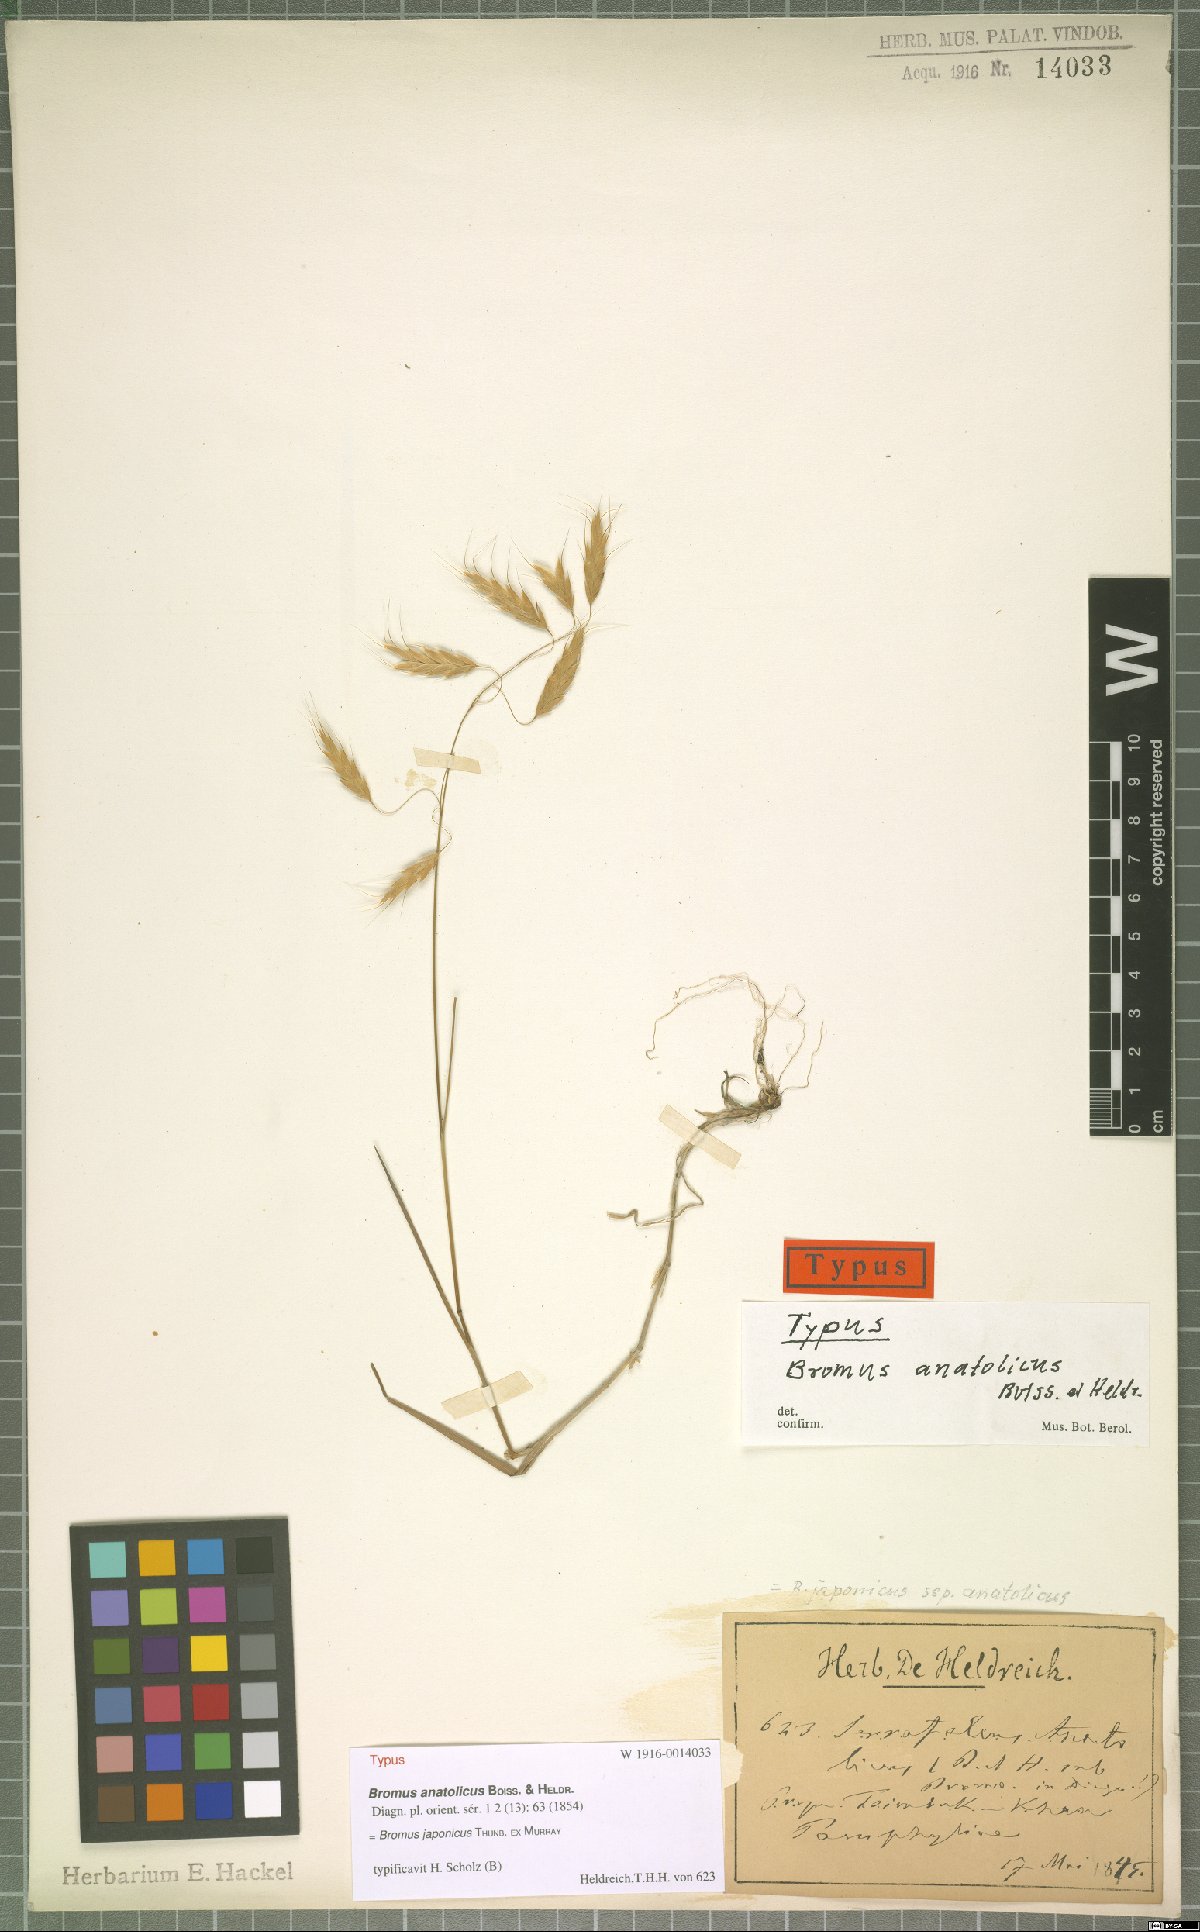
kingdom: Plantae
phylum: Tracheophyta
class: Liliopsida
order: Poales
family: Poaceae
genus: Bromus
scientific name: Bromus japonicus
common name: Japanese brome
